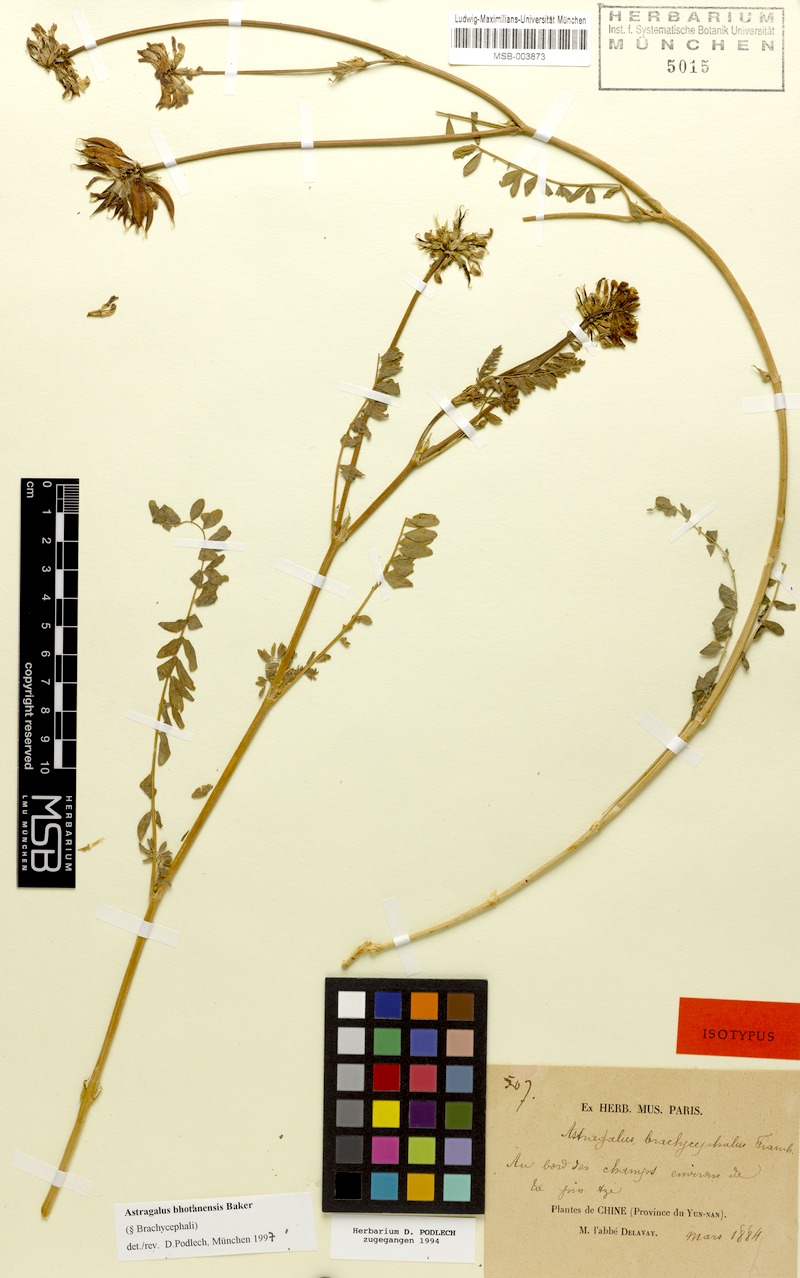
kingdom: Plantae
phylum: Tracheophyta
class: Magnoliopsida
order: Fabales
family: Fabaceae
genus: Astragalus
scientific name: Astragalus bhotanensis
